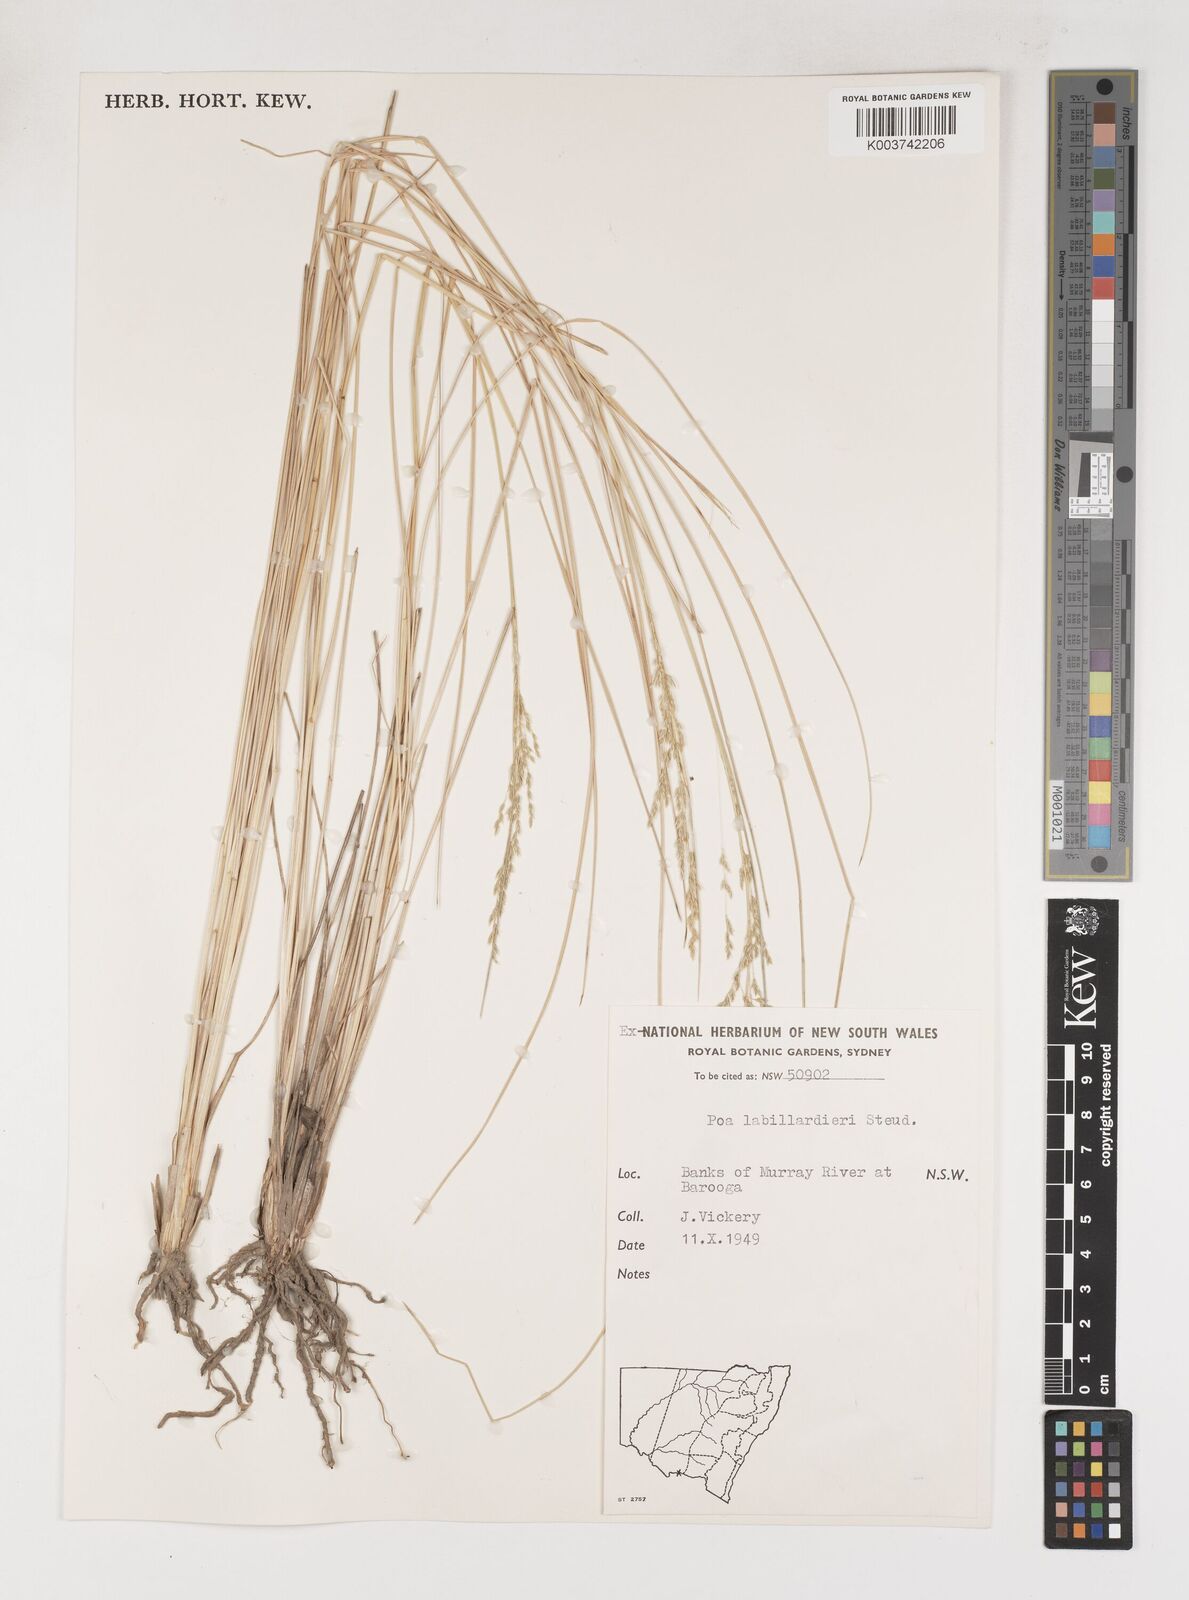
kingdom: Plantae
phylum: Tracheophyta
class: Liliopsida
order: Poales
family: Poaceae
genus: Poa
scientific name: Poa labillardierei
